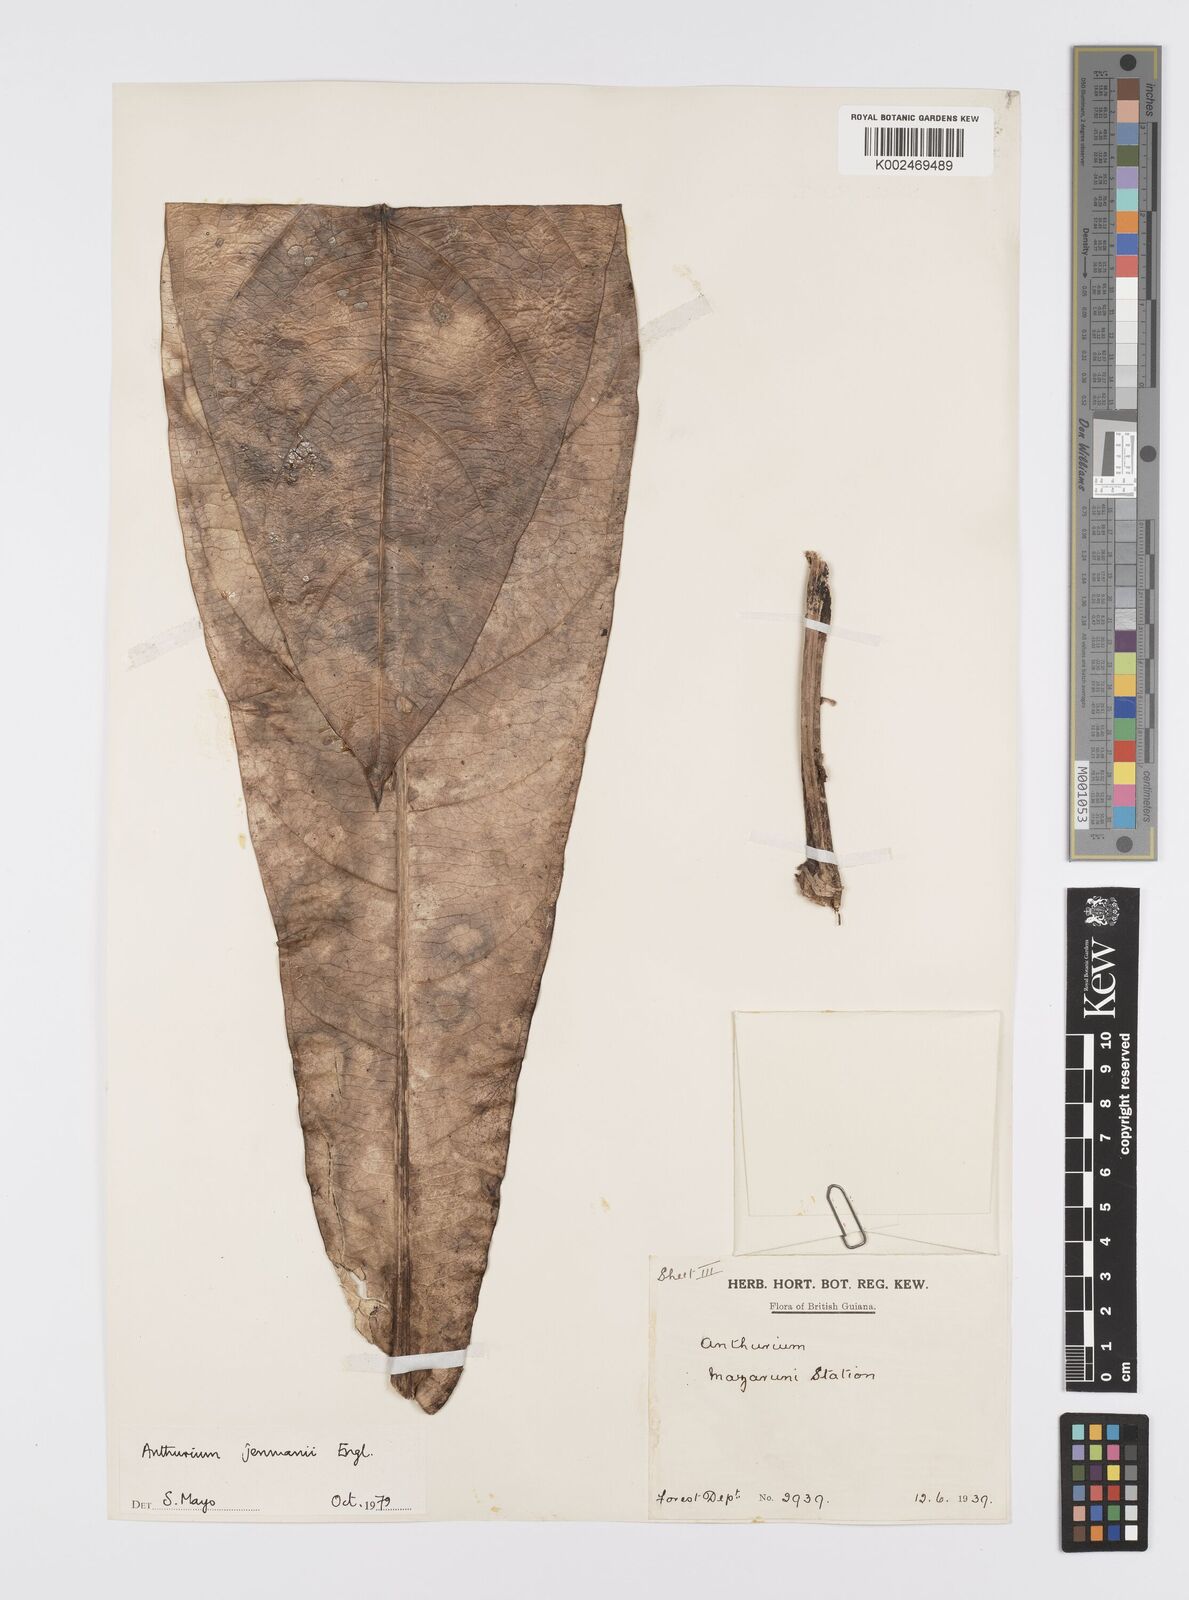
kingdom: Plantae
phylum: Tracheophyta
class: Liliopsida
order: Alismatales
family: Araceae
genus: Anthurium
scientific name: Anthurium jenmanii
